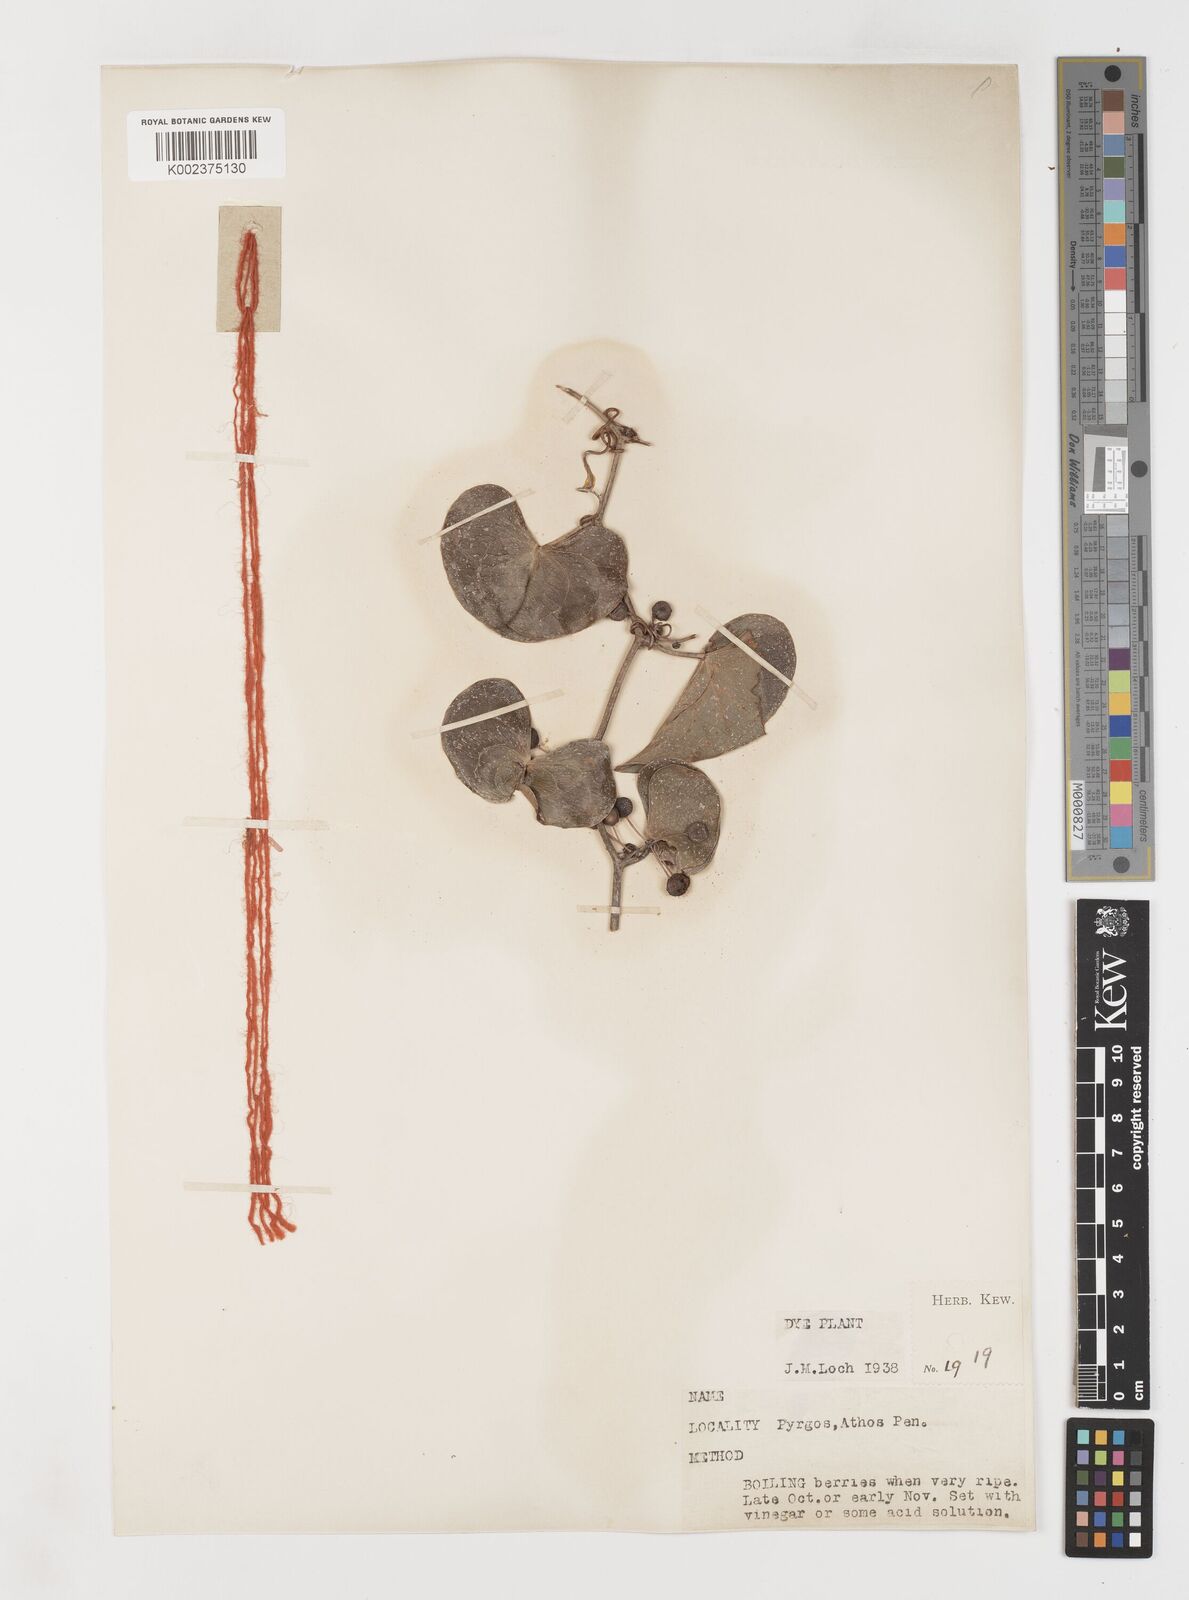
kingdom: Plantae
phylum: Tracheophyta
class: Liliopsida
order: Liliales
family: Smilacaceae
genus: Smilax
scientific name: Smilax aspera
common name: Common smilax
